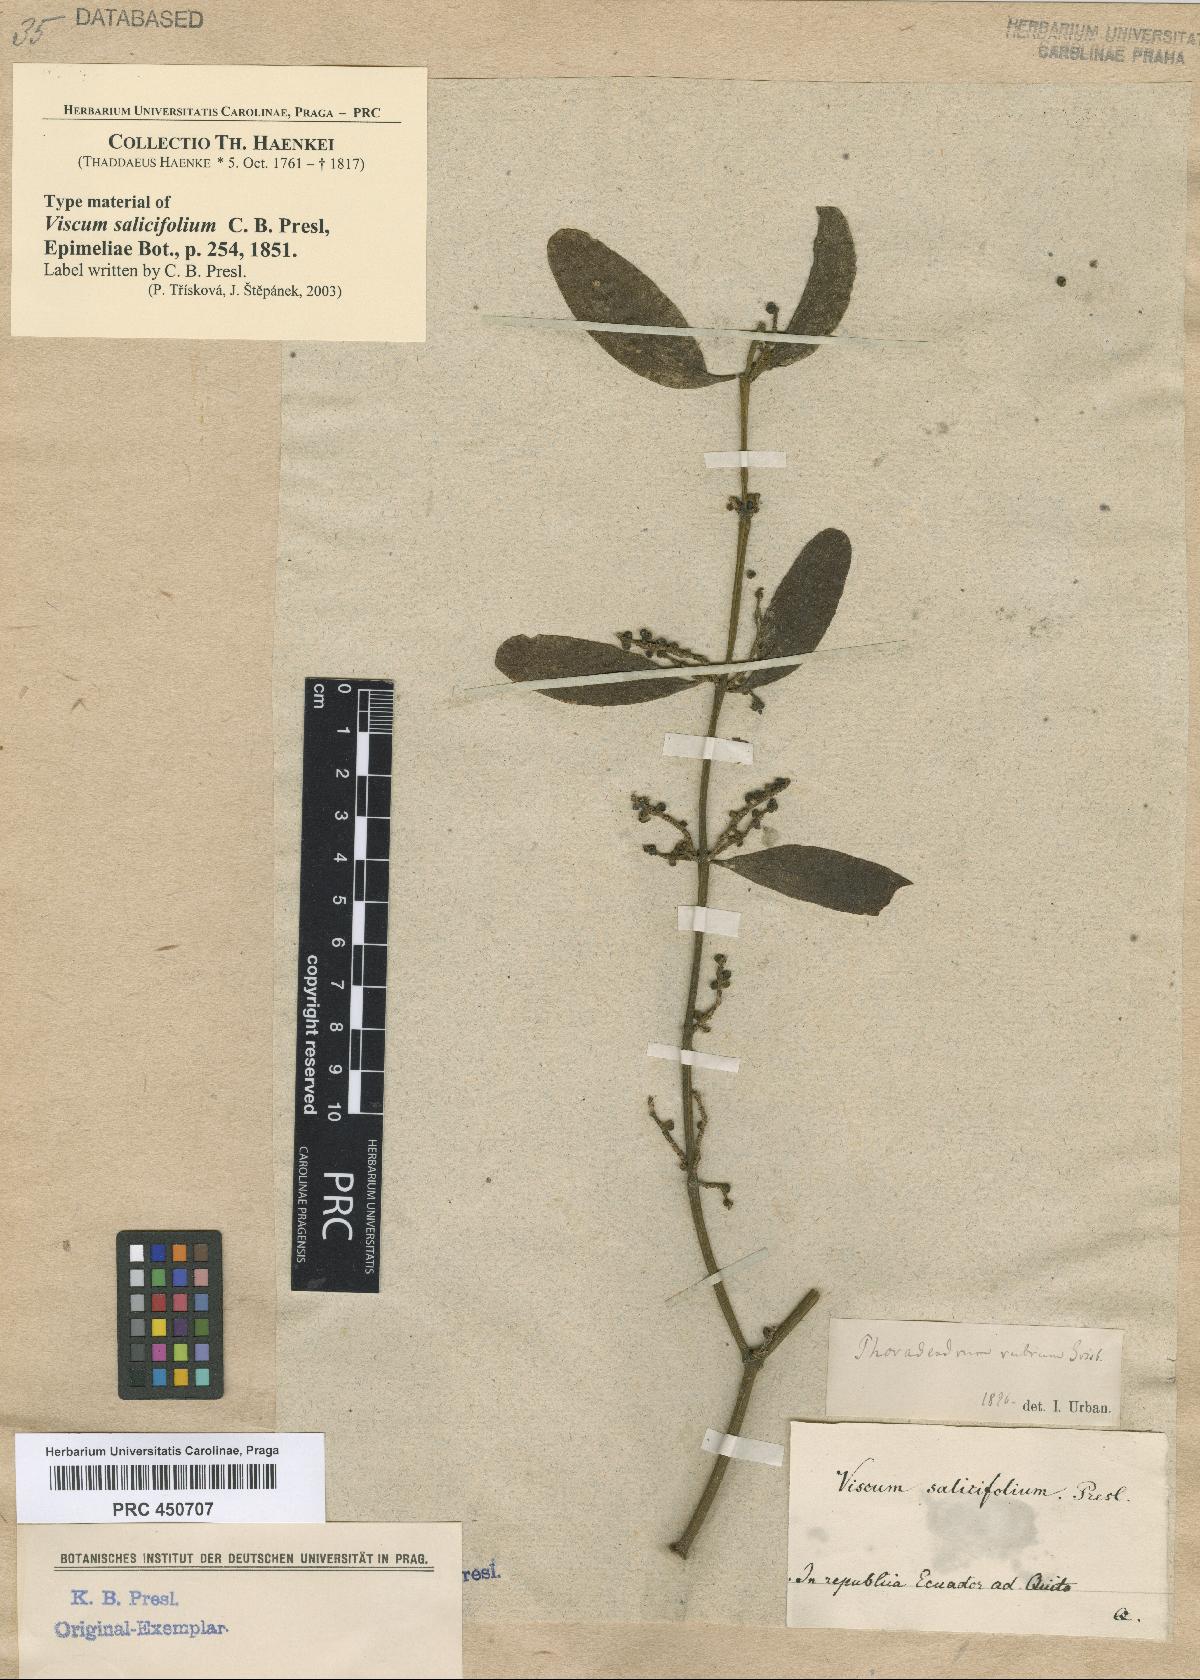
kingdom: Plantae
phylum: Tracheophyta
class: Magnoliopsida
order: Santalales
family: Viscaceae
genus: Phoradendron
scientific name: Phoradendron quadrangulare
